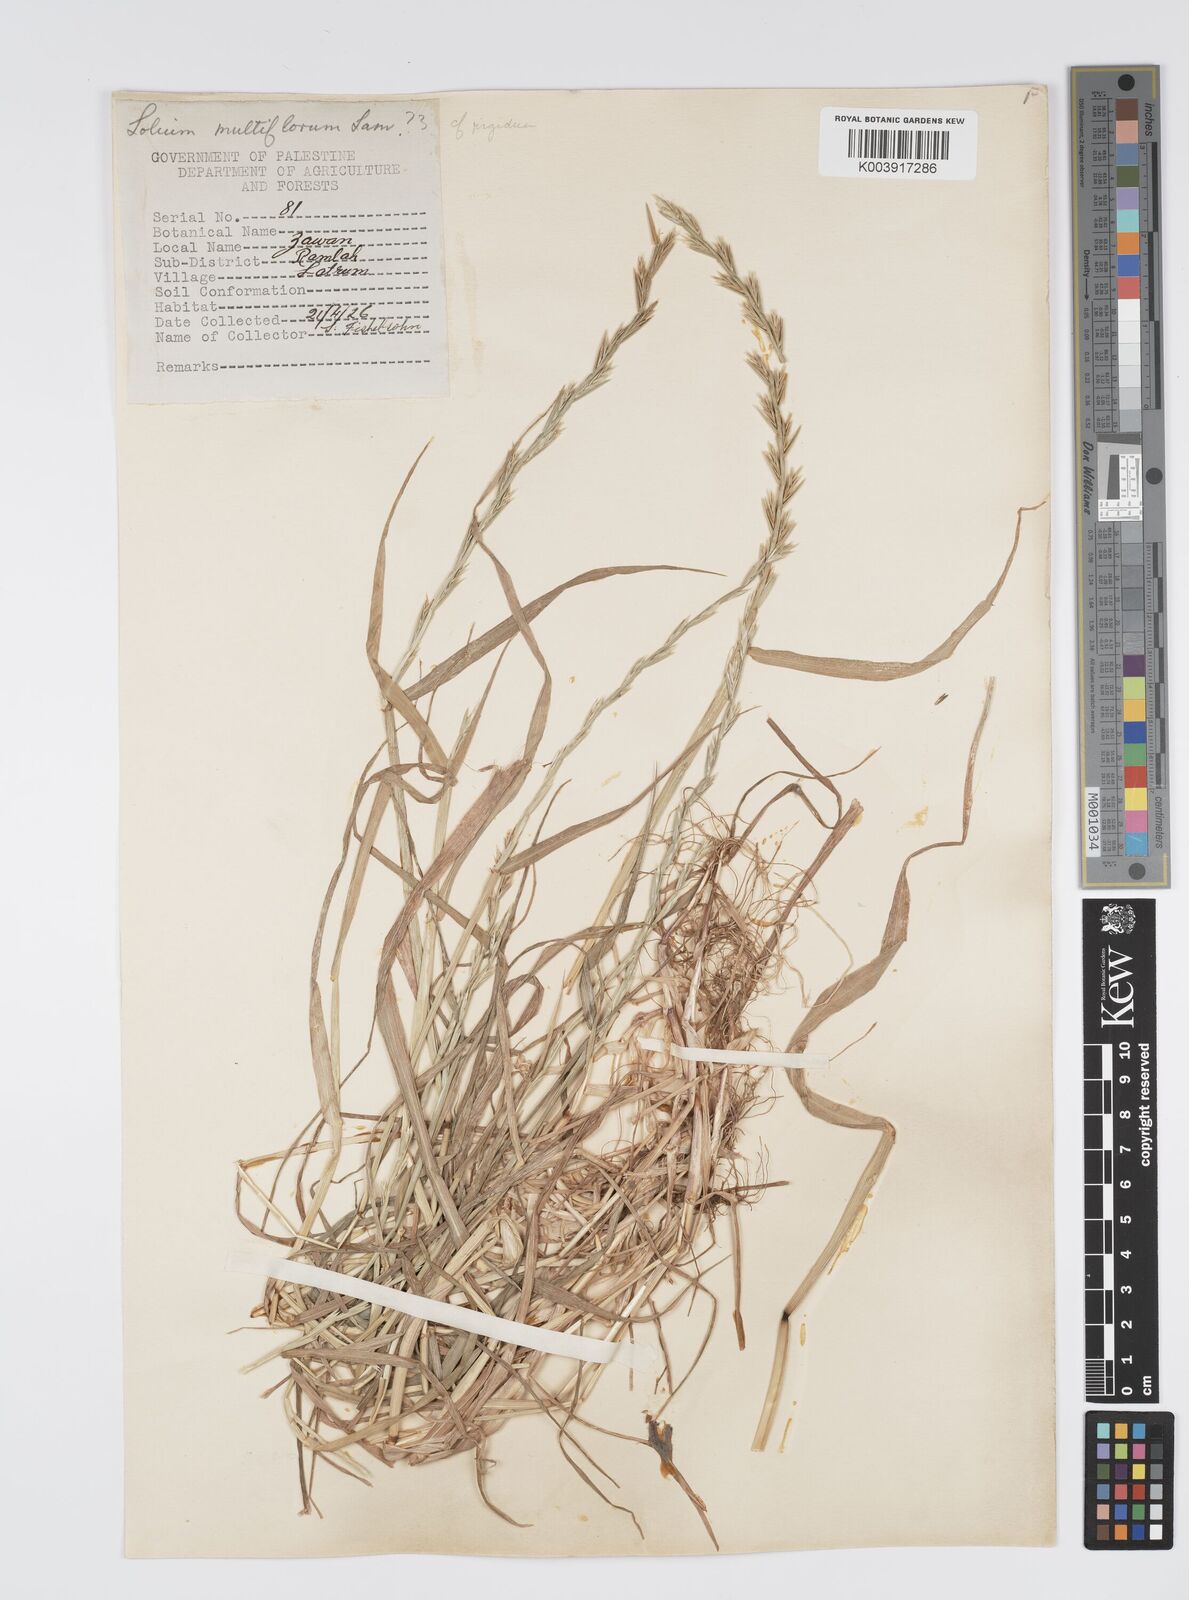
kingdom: Plantae
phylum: Tracheophyta
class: Liliopsida
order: Poales
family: Poaceae
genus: Lolium
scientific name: Lolium rigidum
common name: Wimmera ryegrass
